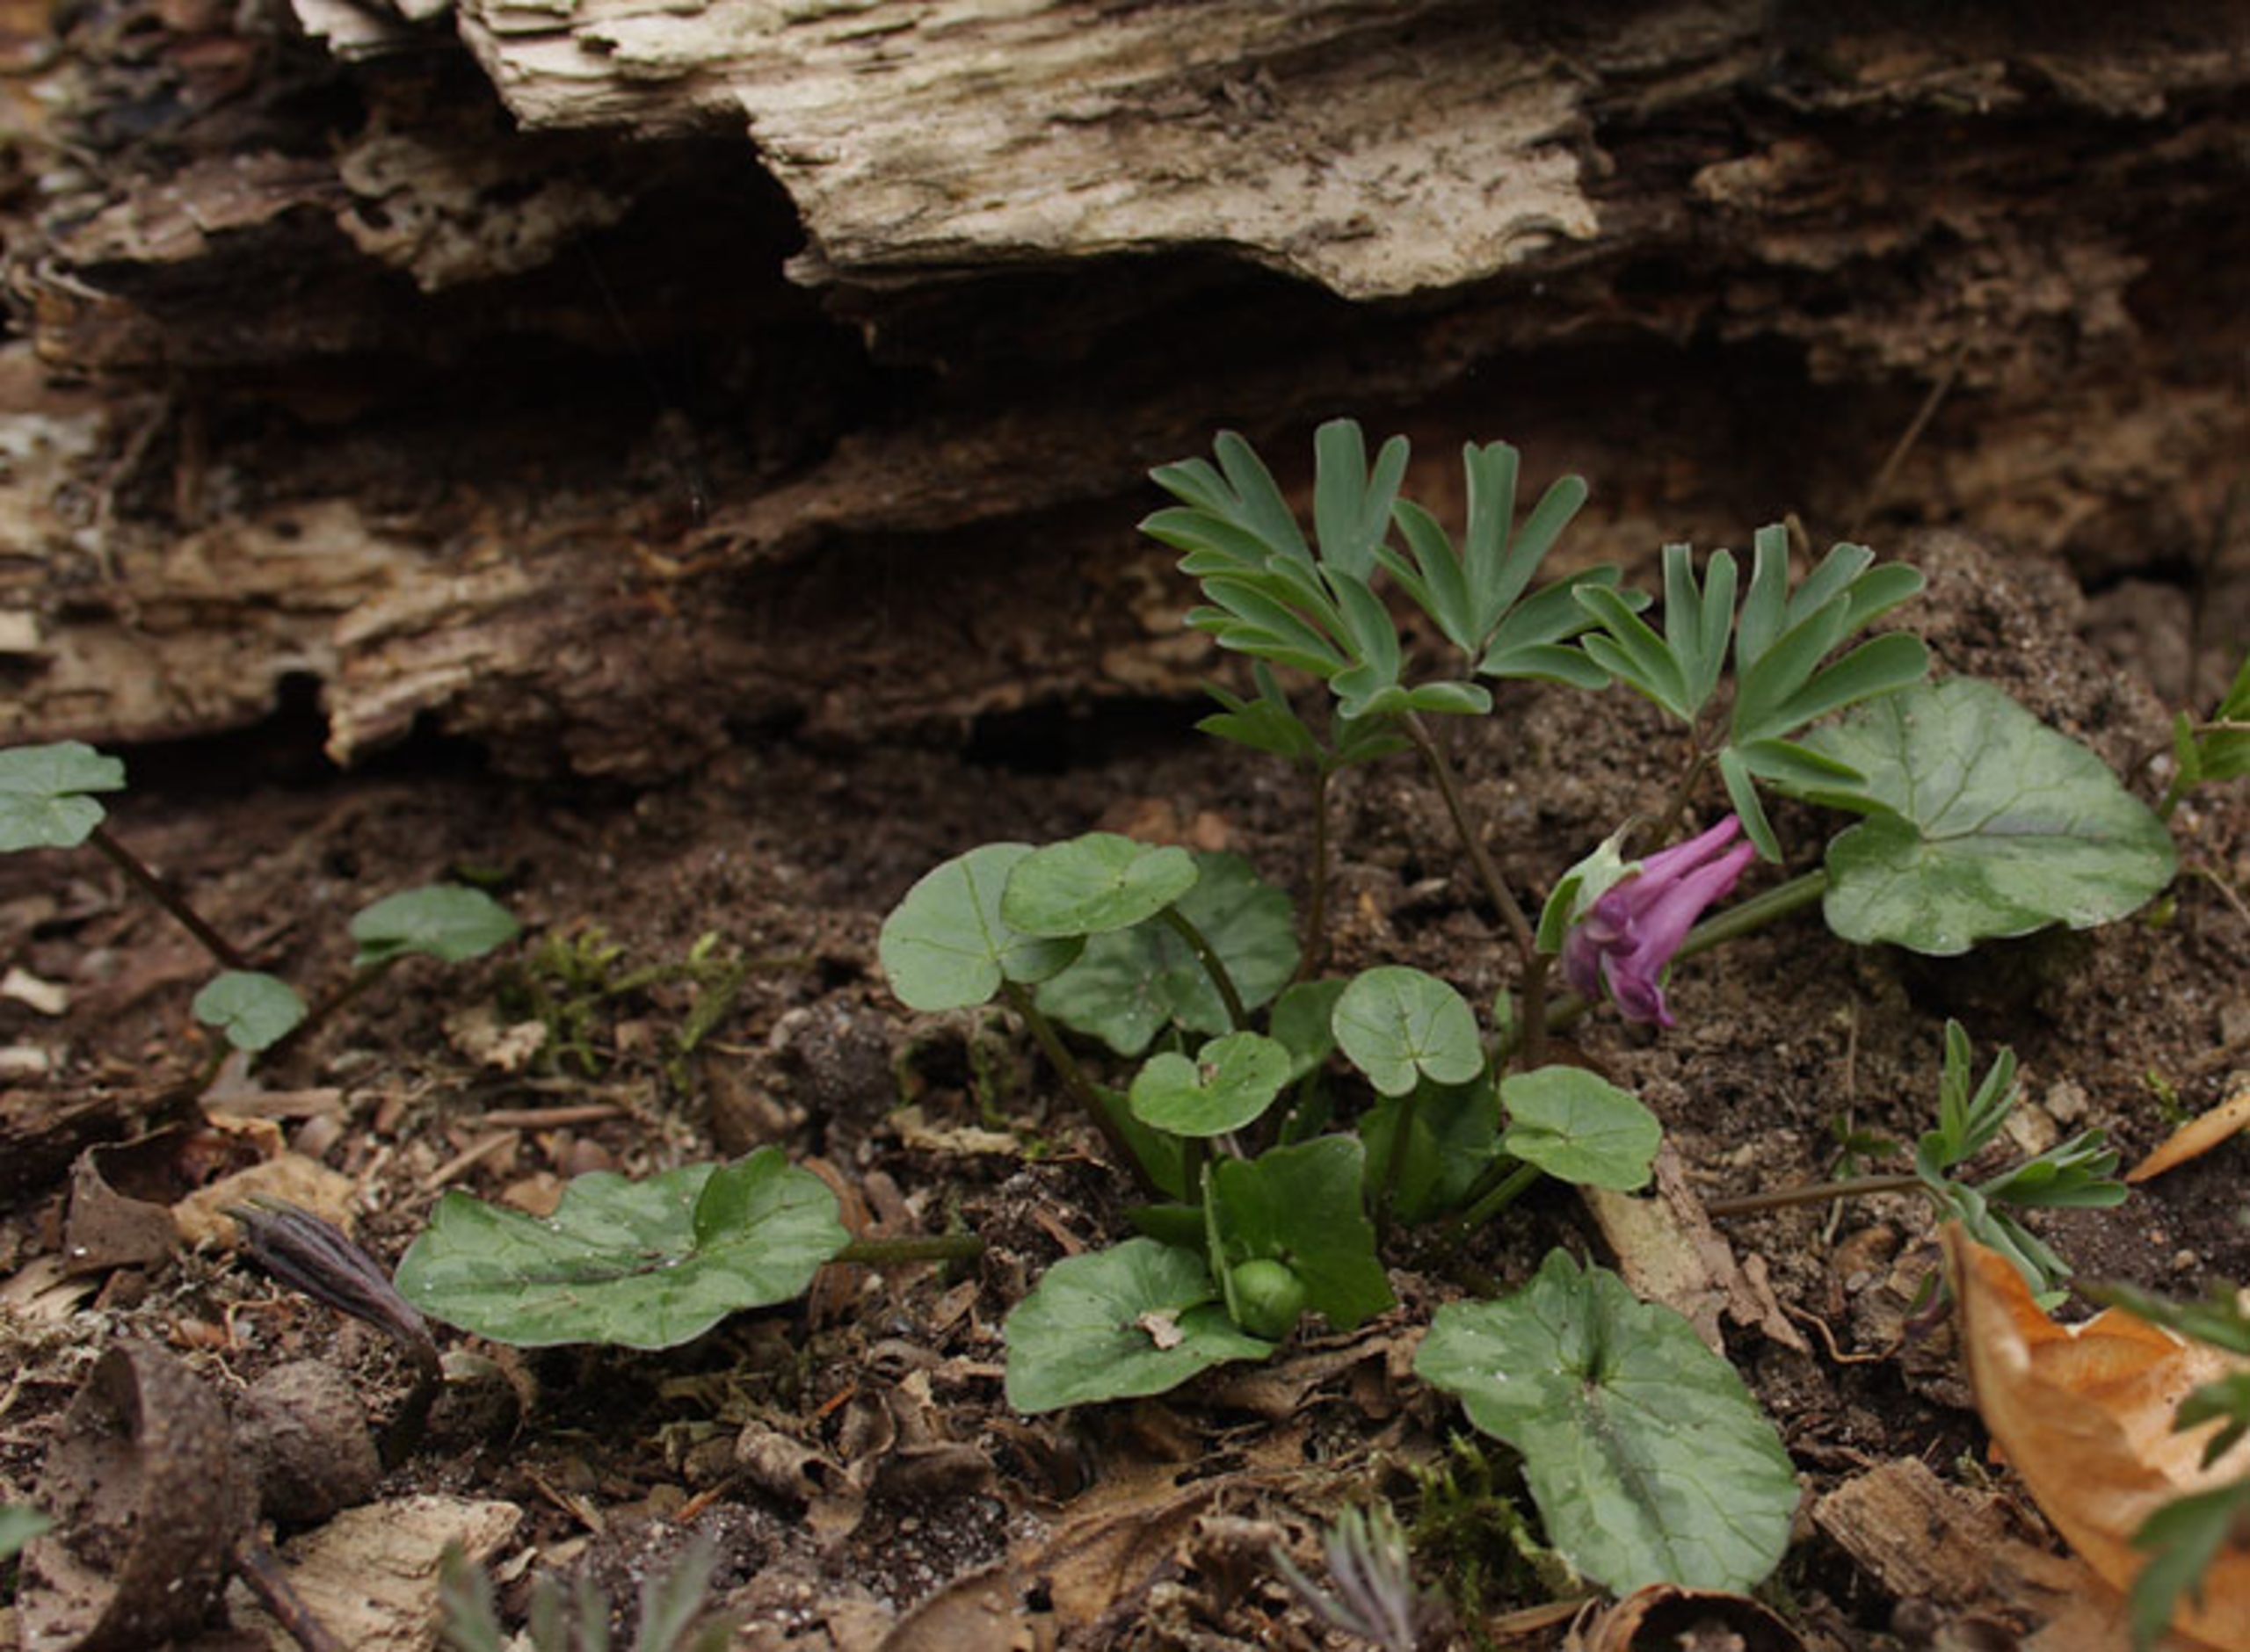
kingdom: Plantae
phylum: Tracheophyta
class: Magnoliopsida
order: Ranunculales
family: Papaveraceae
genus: Corydalis
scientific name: Corydalis intermedia
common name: Liden lærkespore
